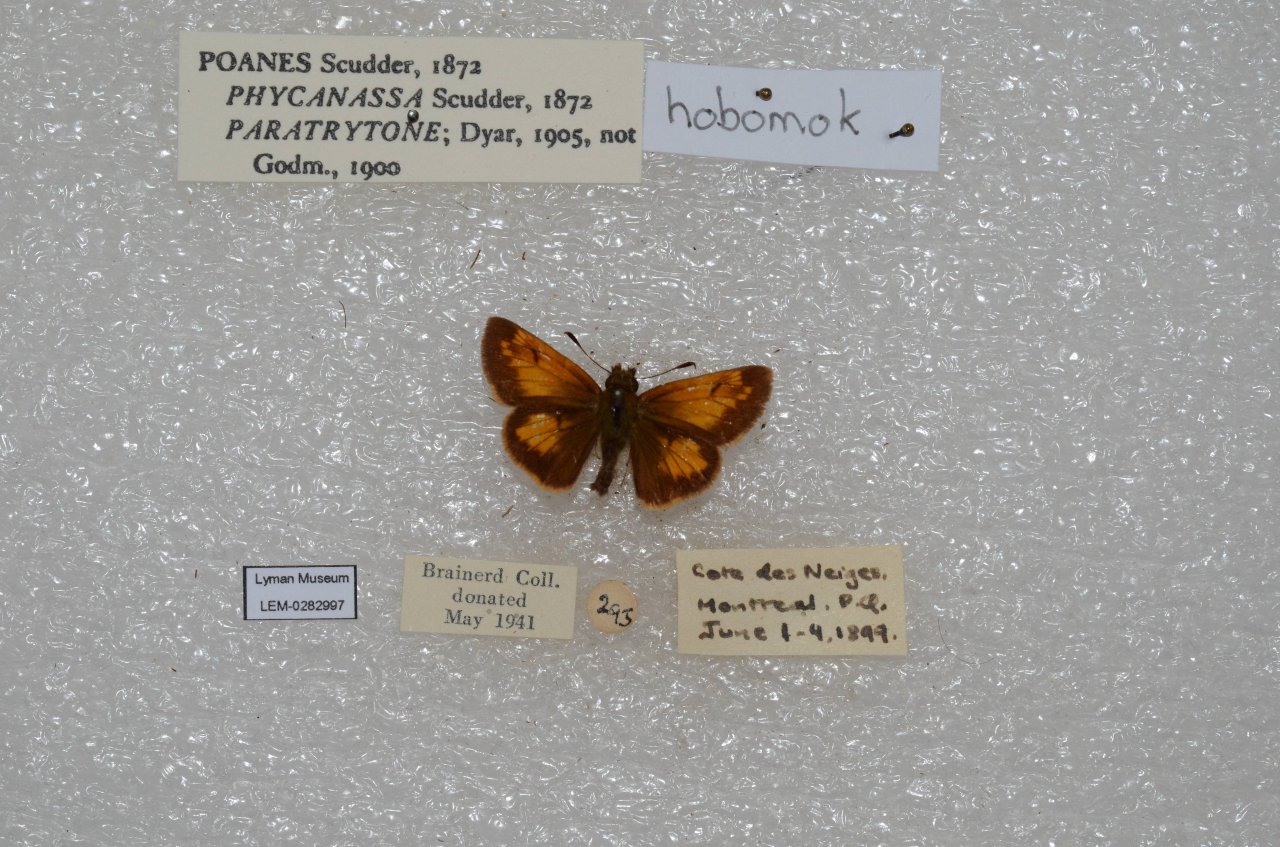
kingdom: Animalia
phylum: Arthropoda
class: Insecta
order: Lepidoptera
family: Hesperiidae
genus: Lon
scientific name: Lon hobomok
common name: Hobomok Skipper
